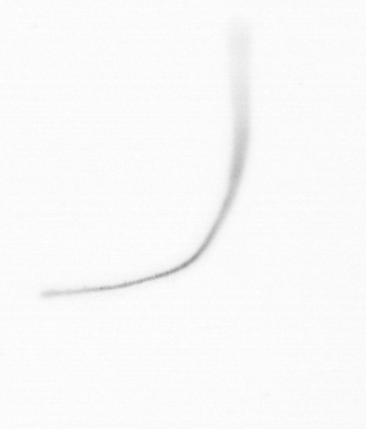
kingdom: Chromista
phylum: Ochrophyta
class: Bacillariophyceae
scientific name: Bacillariophyceae
